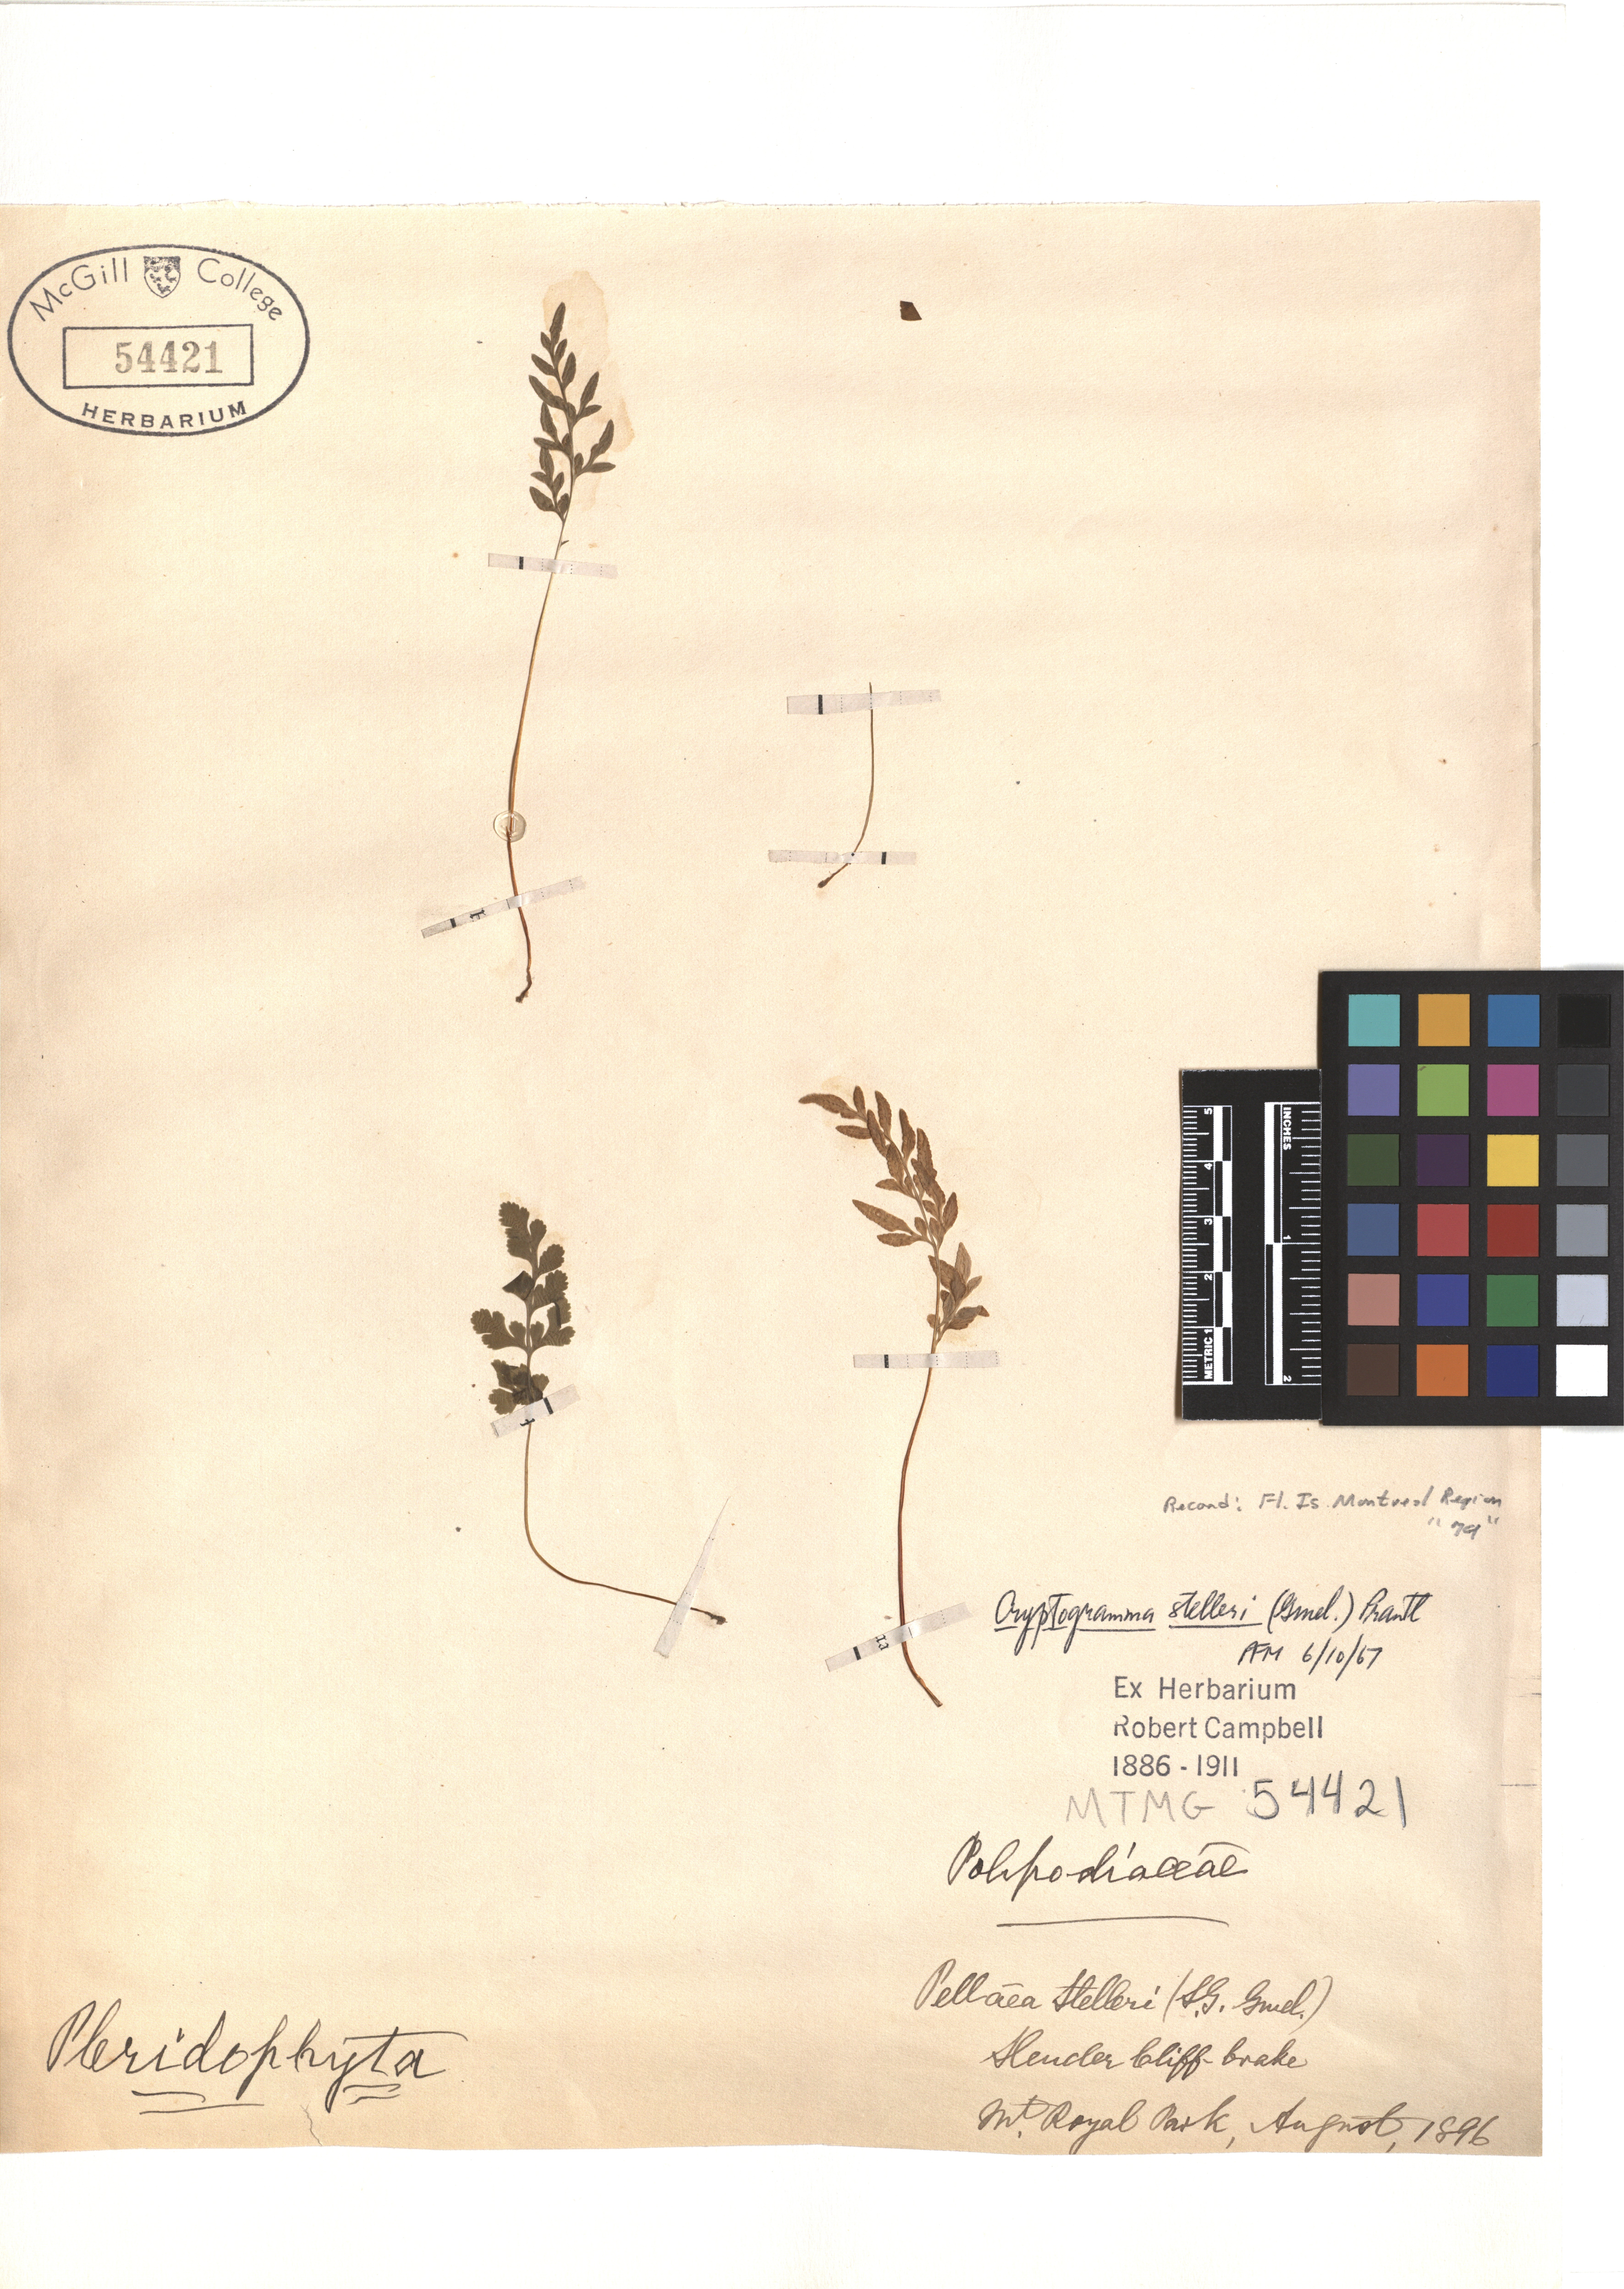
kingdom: Plantae
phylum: Tracheophyta
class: Polypodiopsida
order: Polypodiales
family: Pteridaceae
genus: Cryptogramma
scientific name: Cryptogramma stelleri
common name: Cliff-brake
